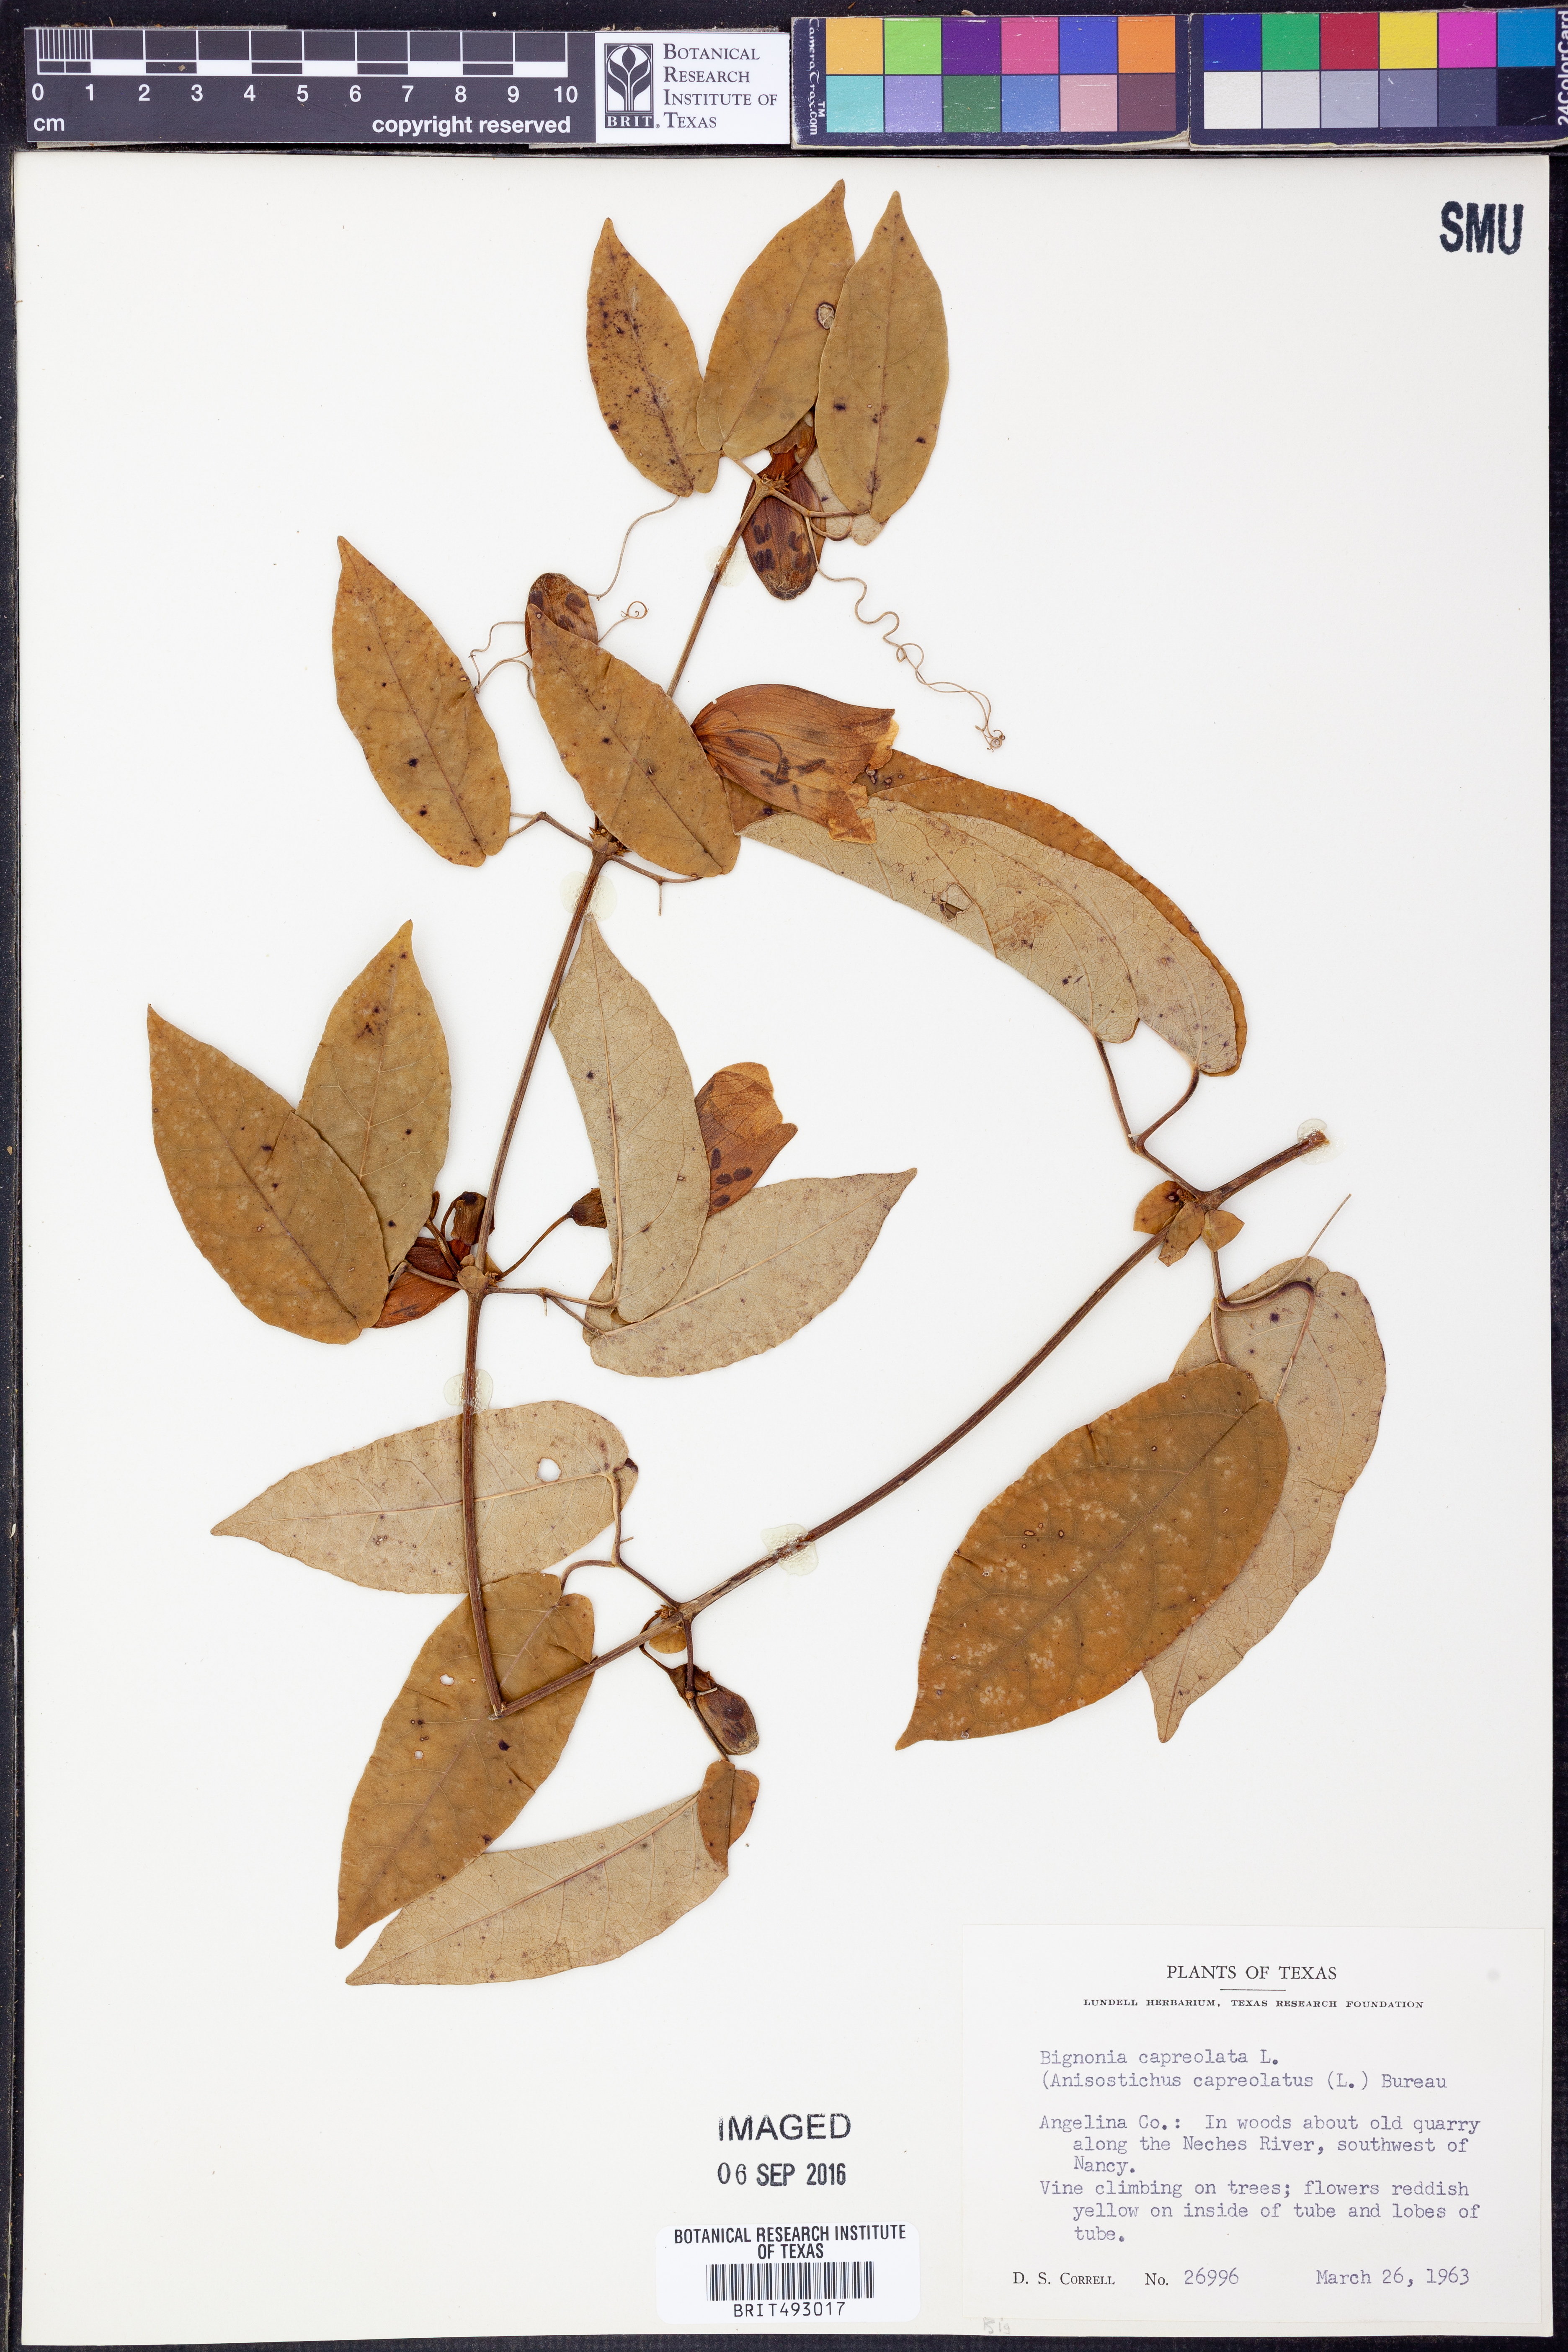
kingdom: Plantae
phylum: Tracheophyta
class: Magnoliopsida
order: Lamiales
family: Bignoniaceae
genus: Bignonia
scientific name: Bignonia capreolata
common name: Crossvine
